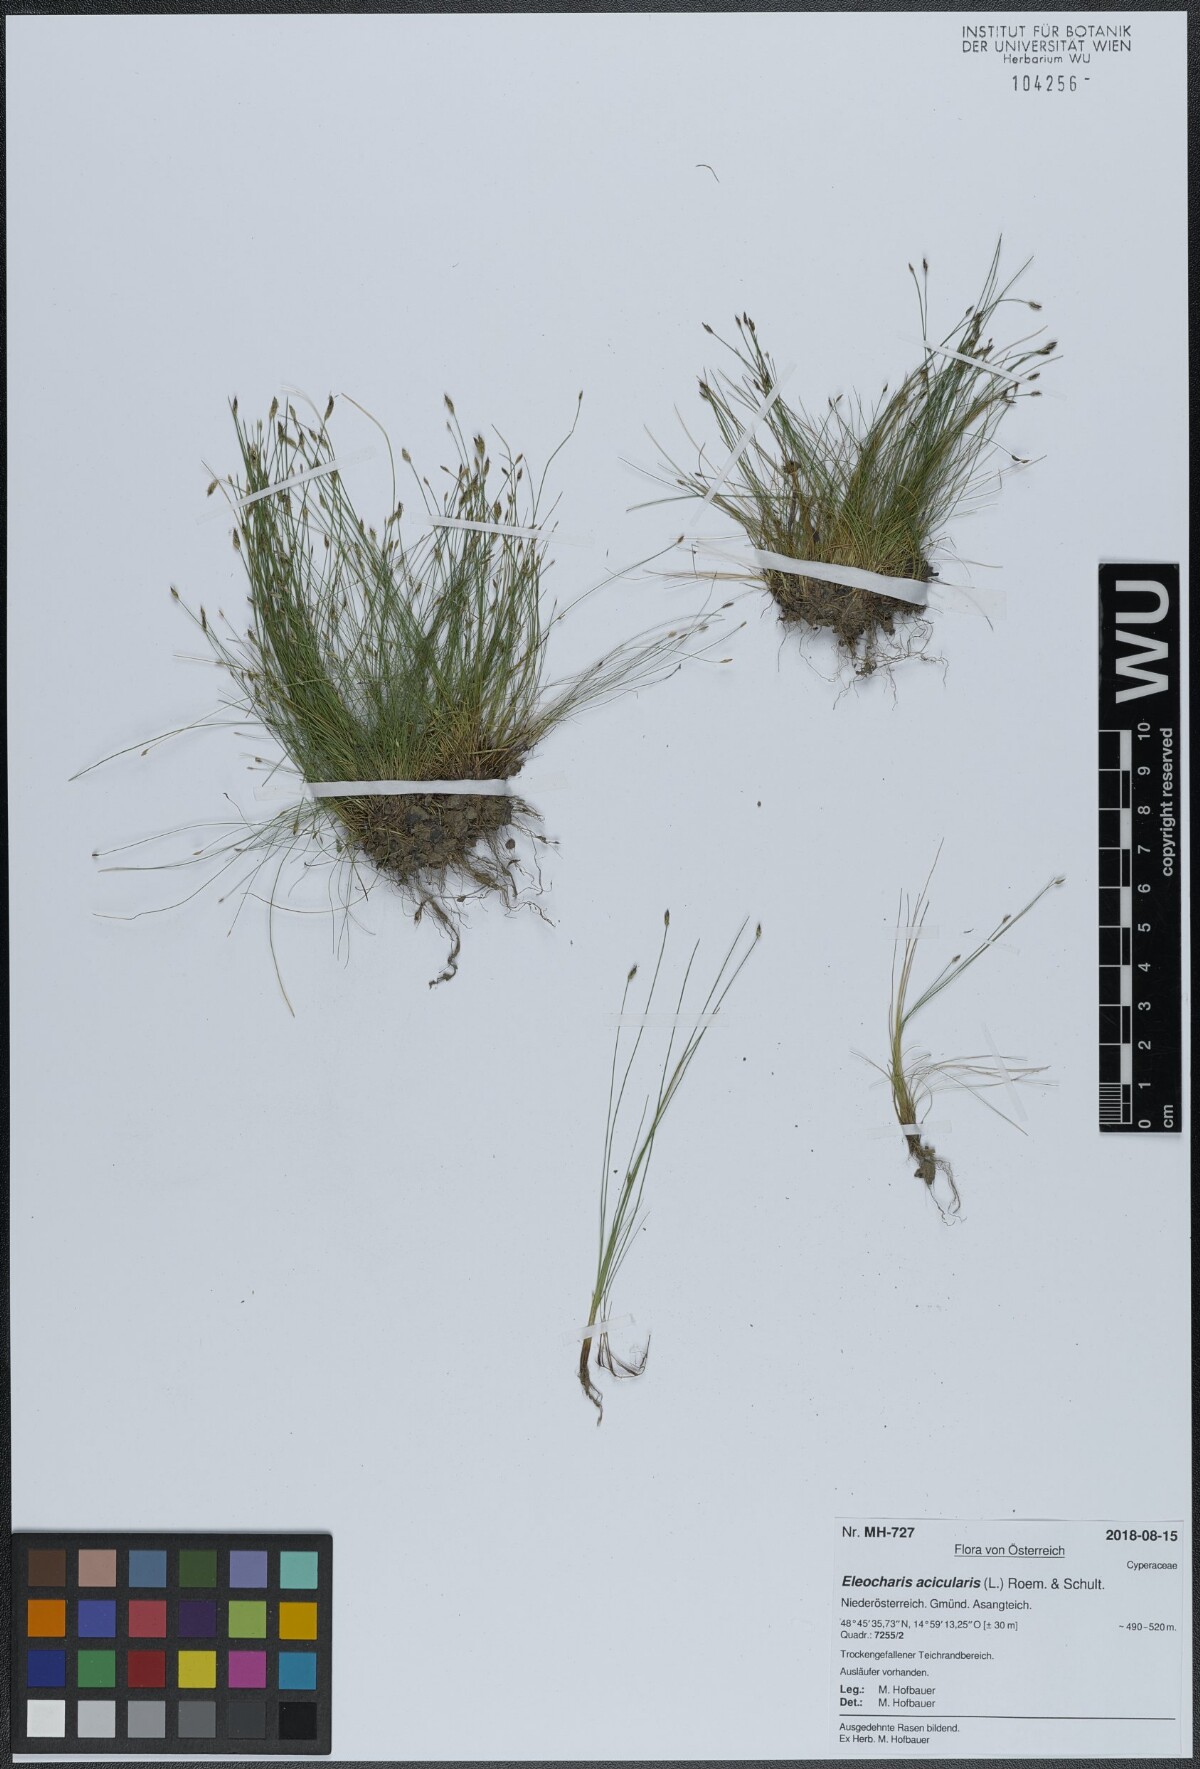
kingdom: Plantae
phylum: Tracheophyta
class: Liliopsida
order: Poales
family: Cyperaceae
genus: Eleocharis
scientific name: Eleocharis acicularis
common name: Needle spike-rush
